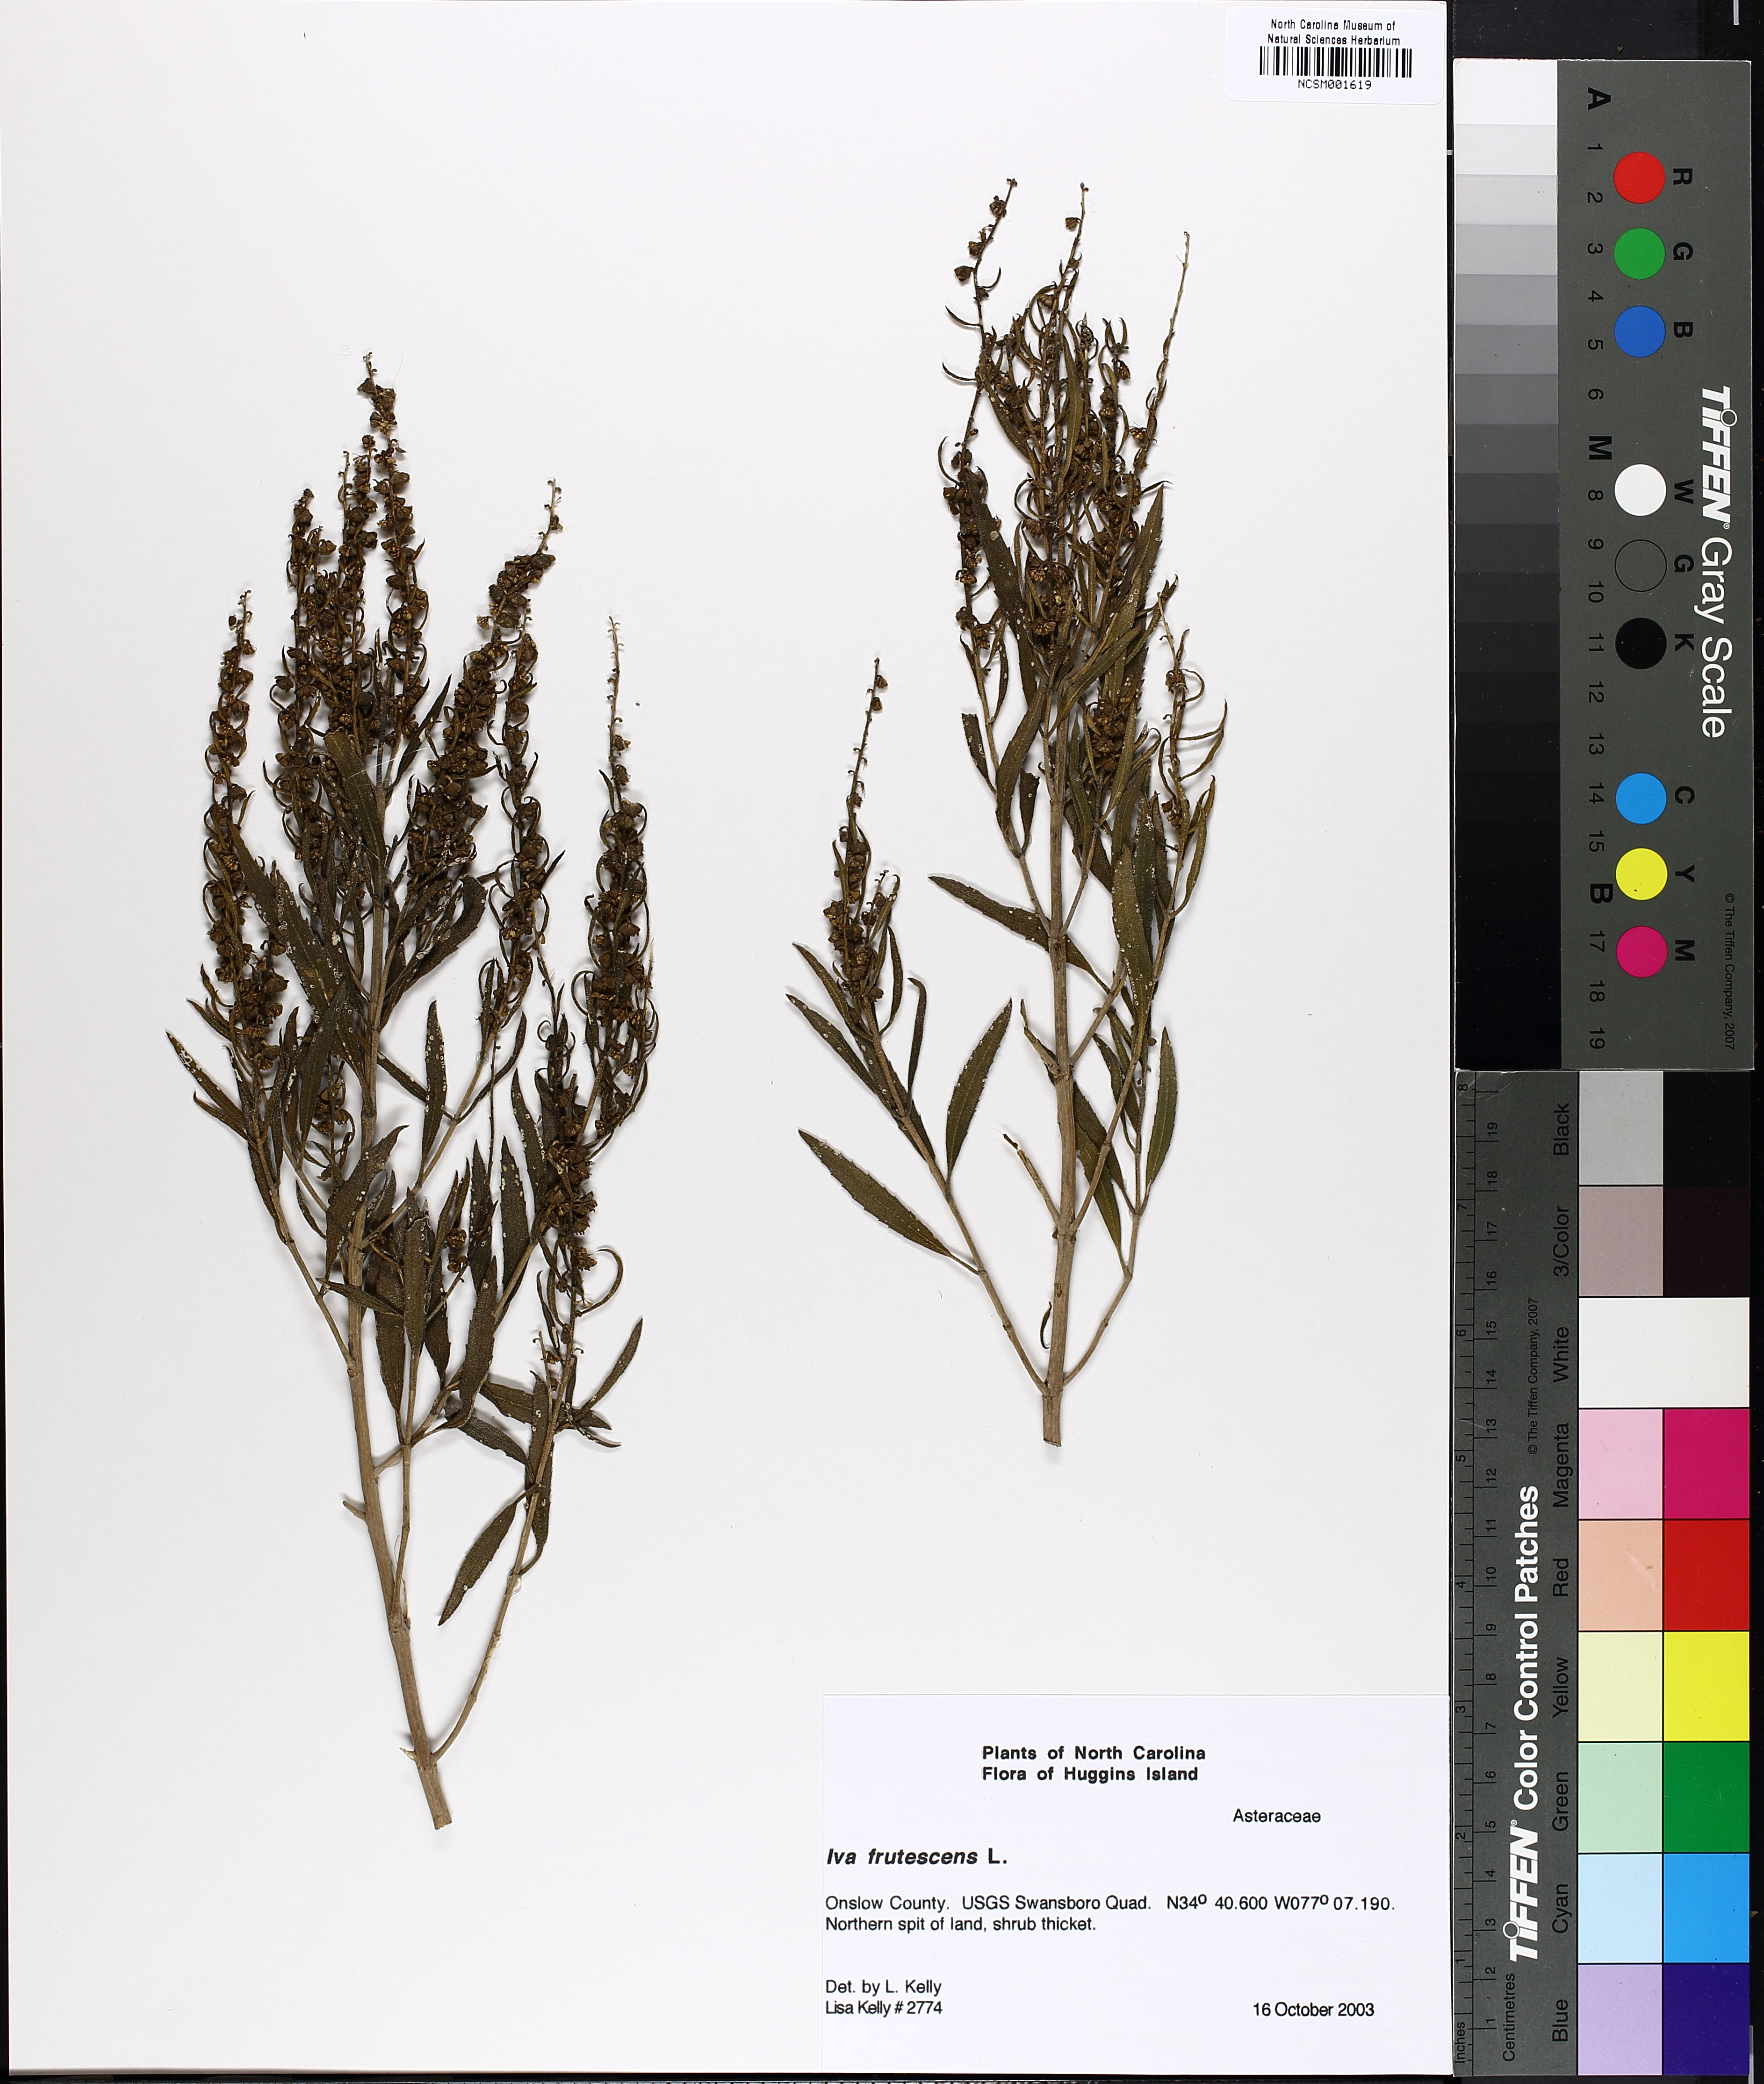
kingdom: Plantae
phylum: Tracheophyta
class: Magnoliopsida
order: Asterales
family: Asteraceae
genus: Iva
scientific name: Iva frutescens
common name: Big-leaved marsh-elder
